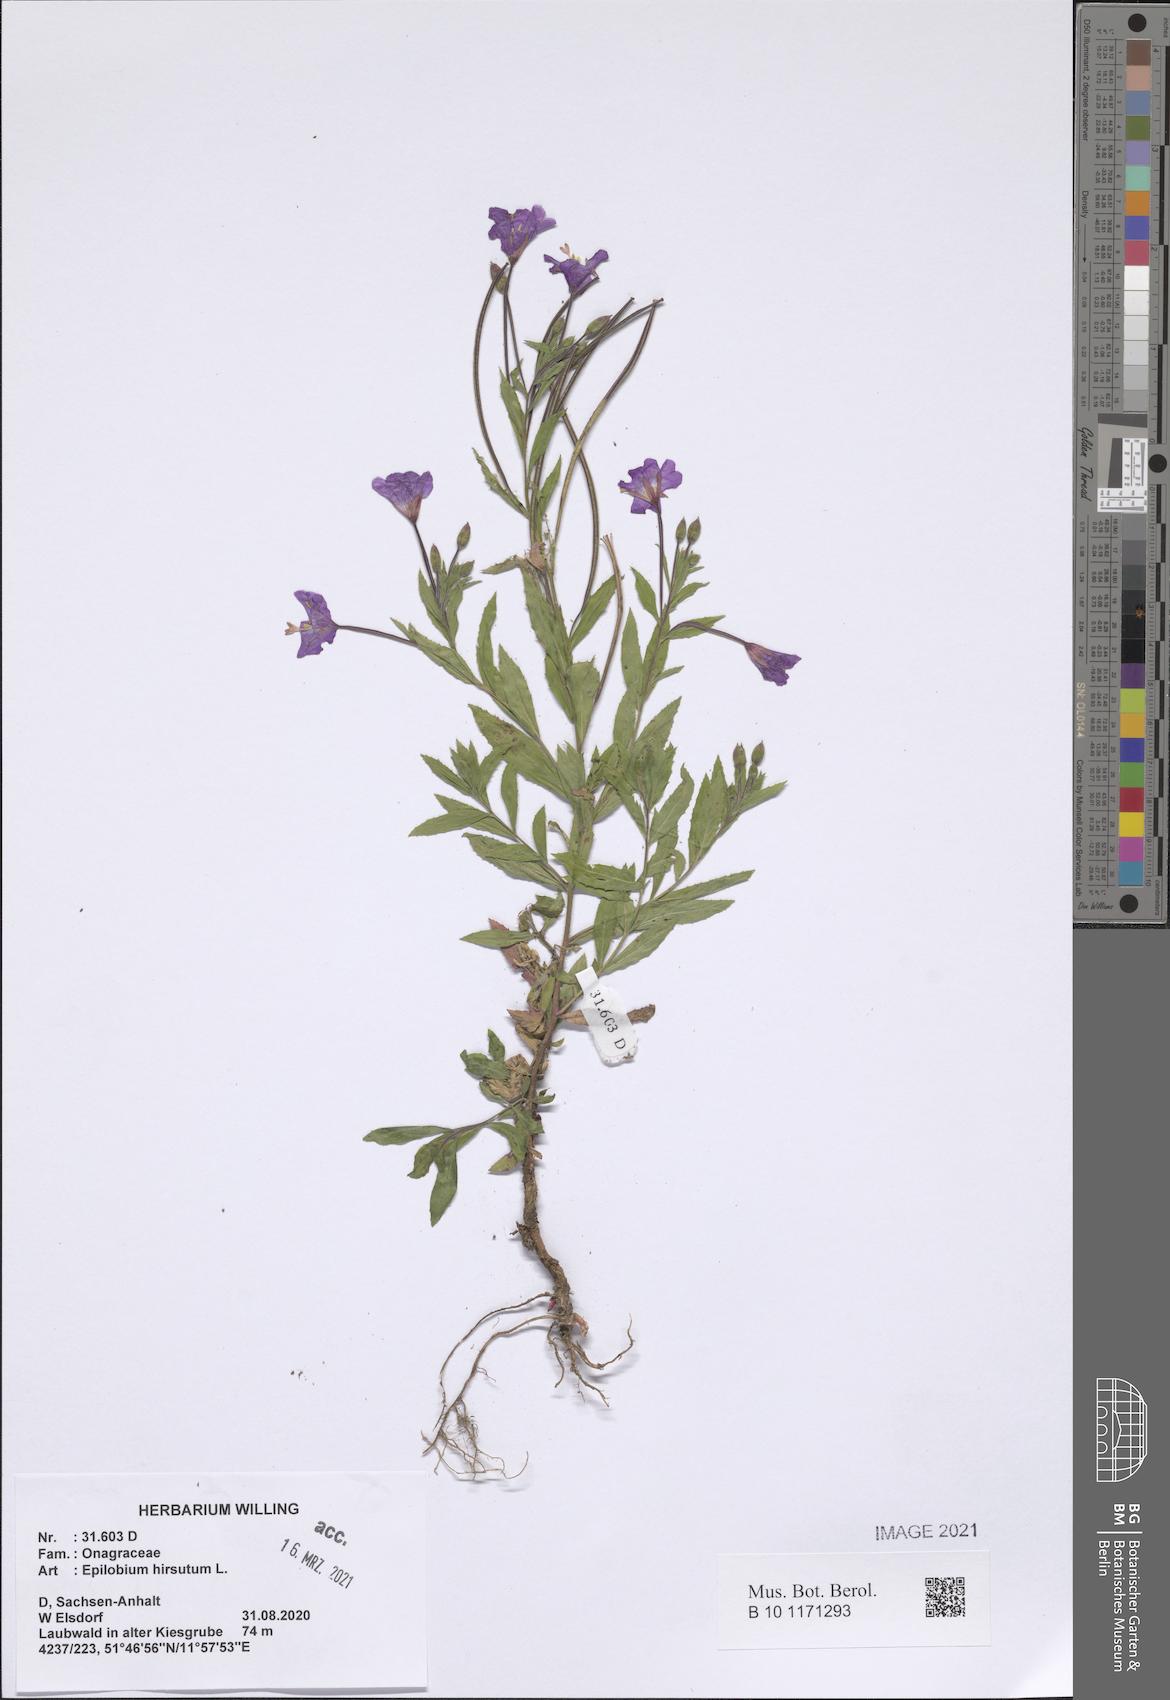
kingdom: Plantae
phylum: Tracheophyta
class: Magnoliopsida
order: Myrtales
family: Onagraceae
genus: Epilobium
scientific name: Epilobium hirsutum
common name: Great willowherb
